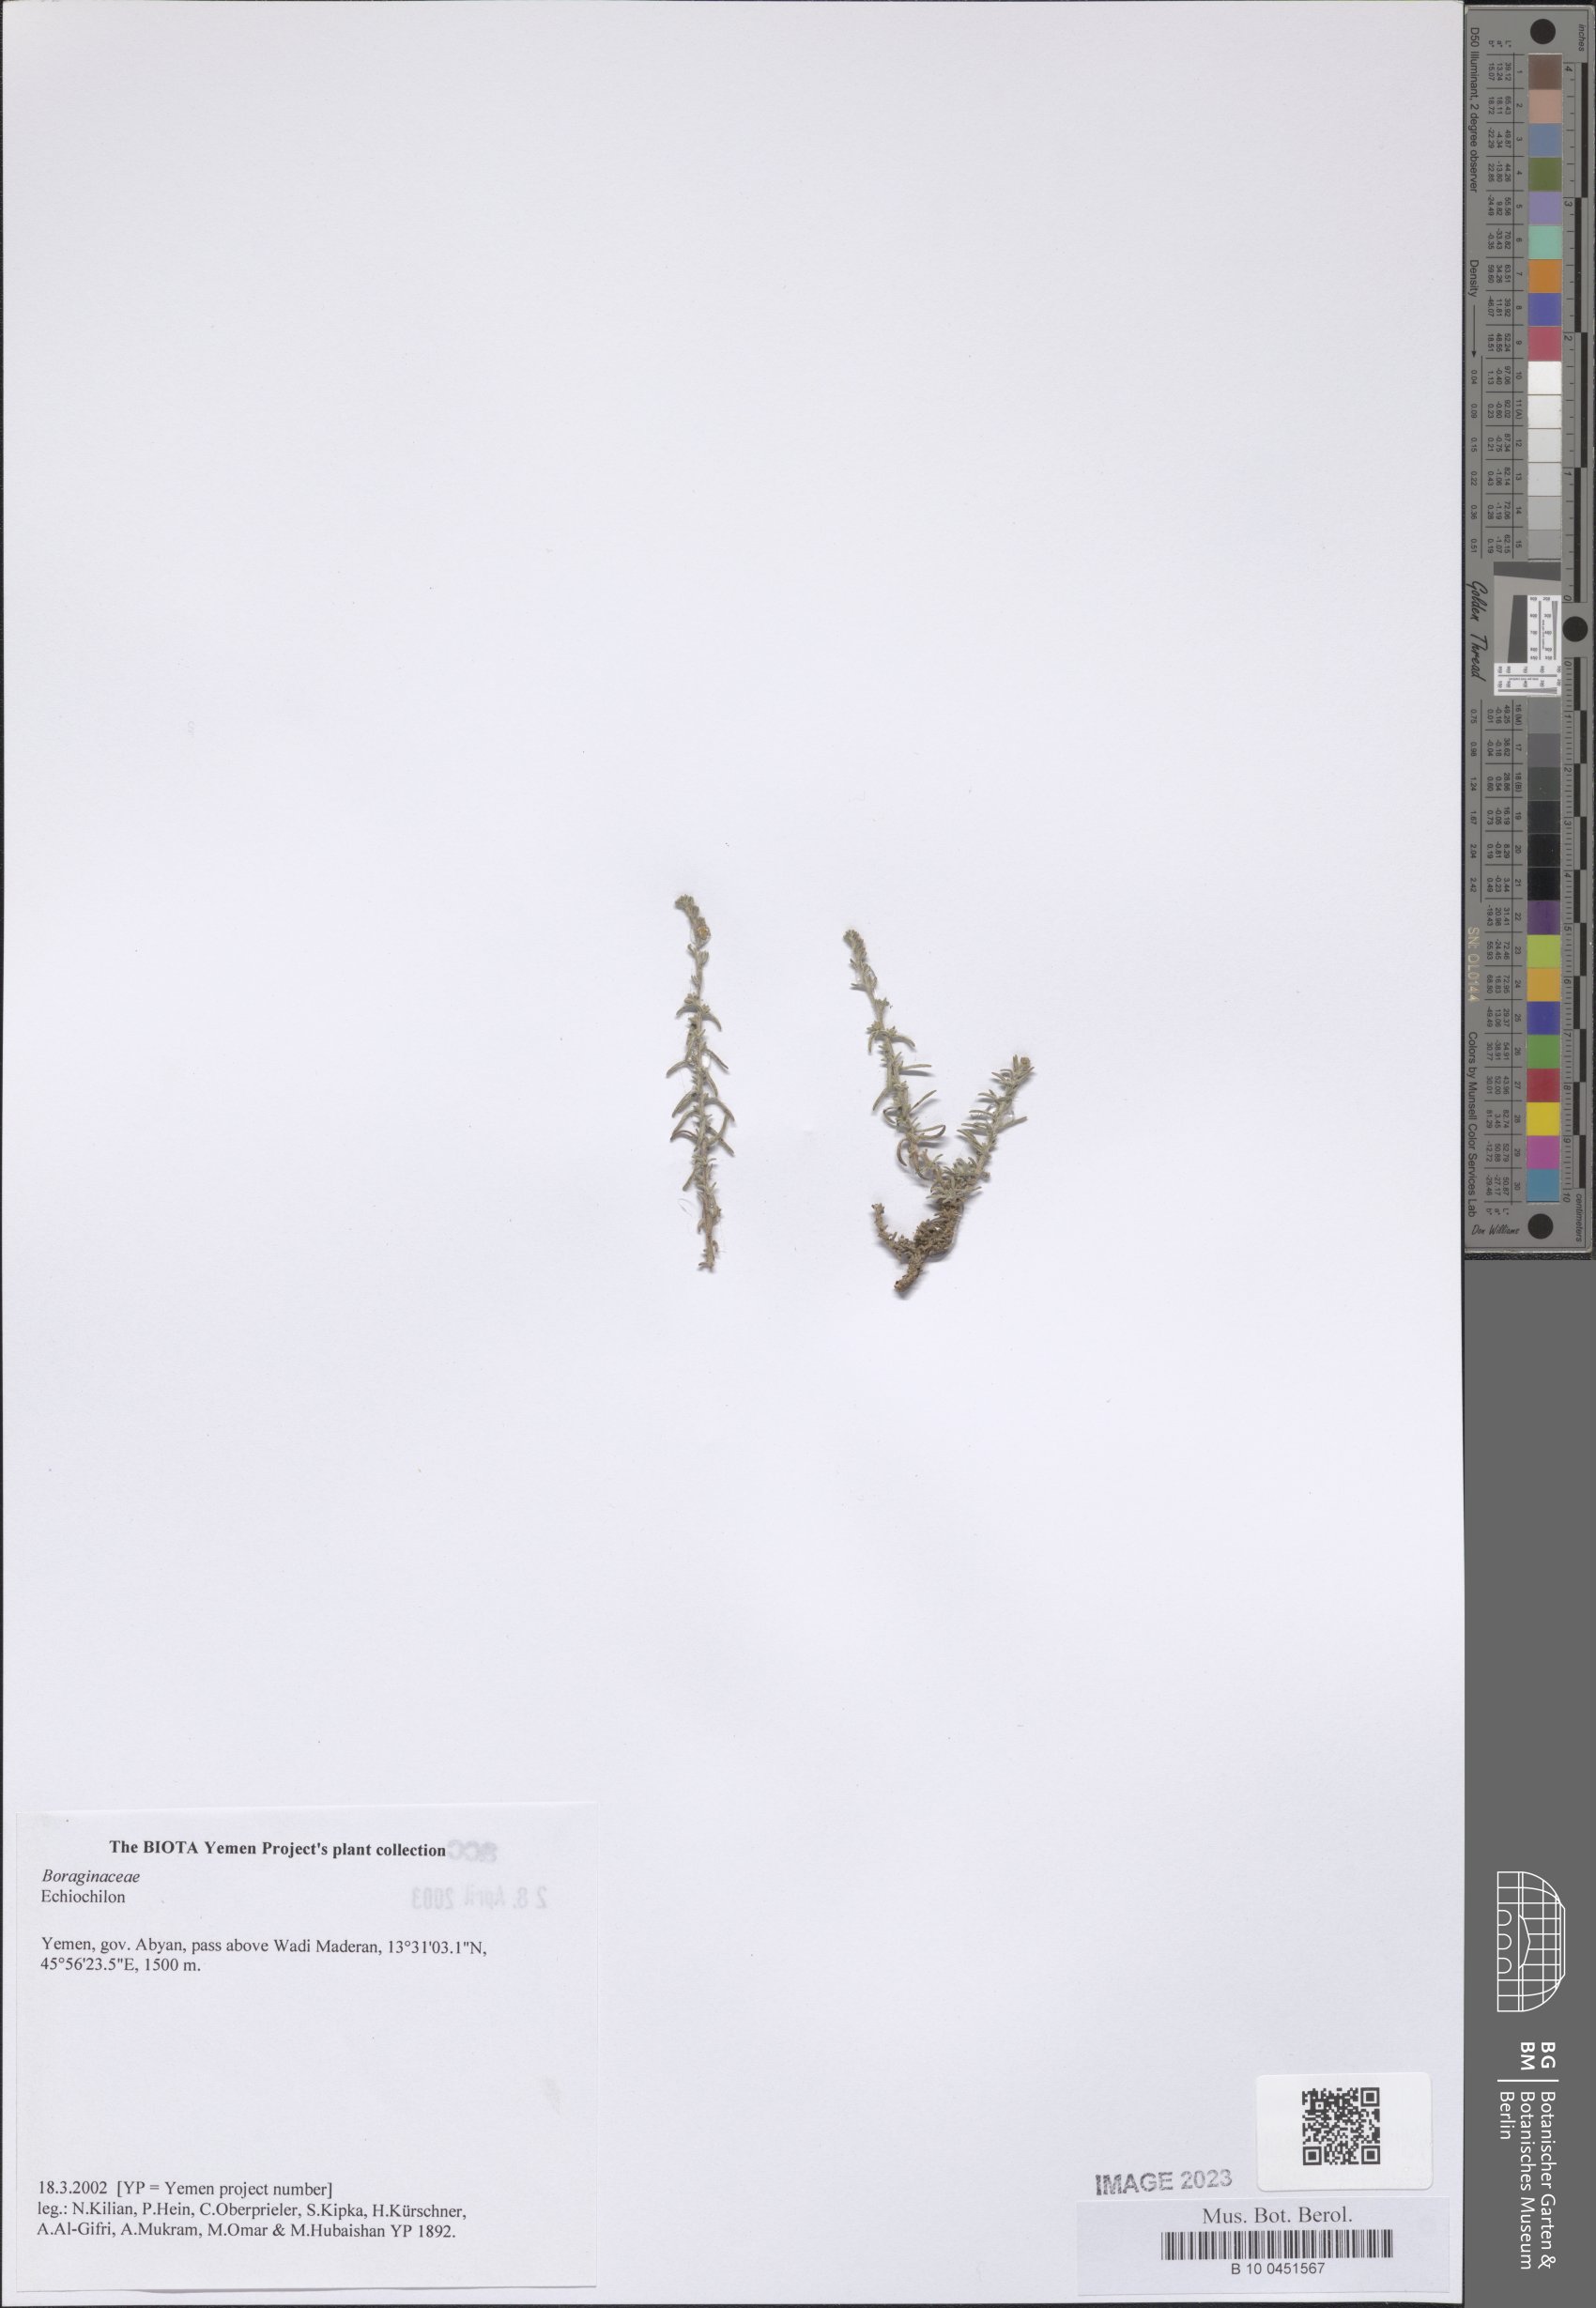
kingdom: Plantae
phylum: Tracheophyta
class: Magnoliopsida
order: Boraginales
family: Boraginaceae
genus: Echiochilon
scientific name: Echiochilon
